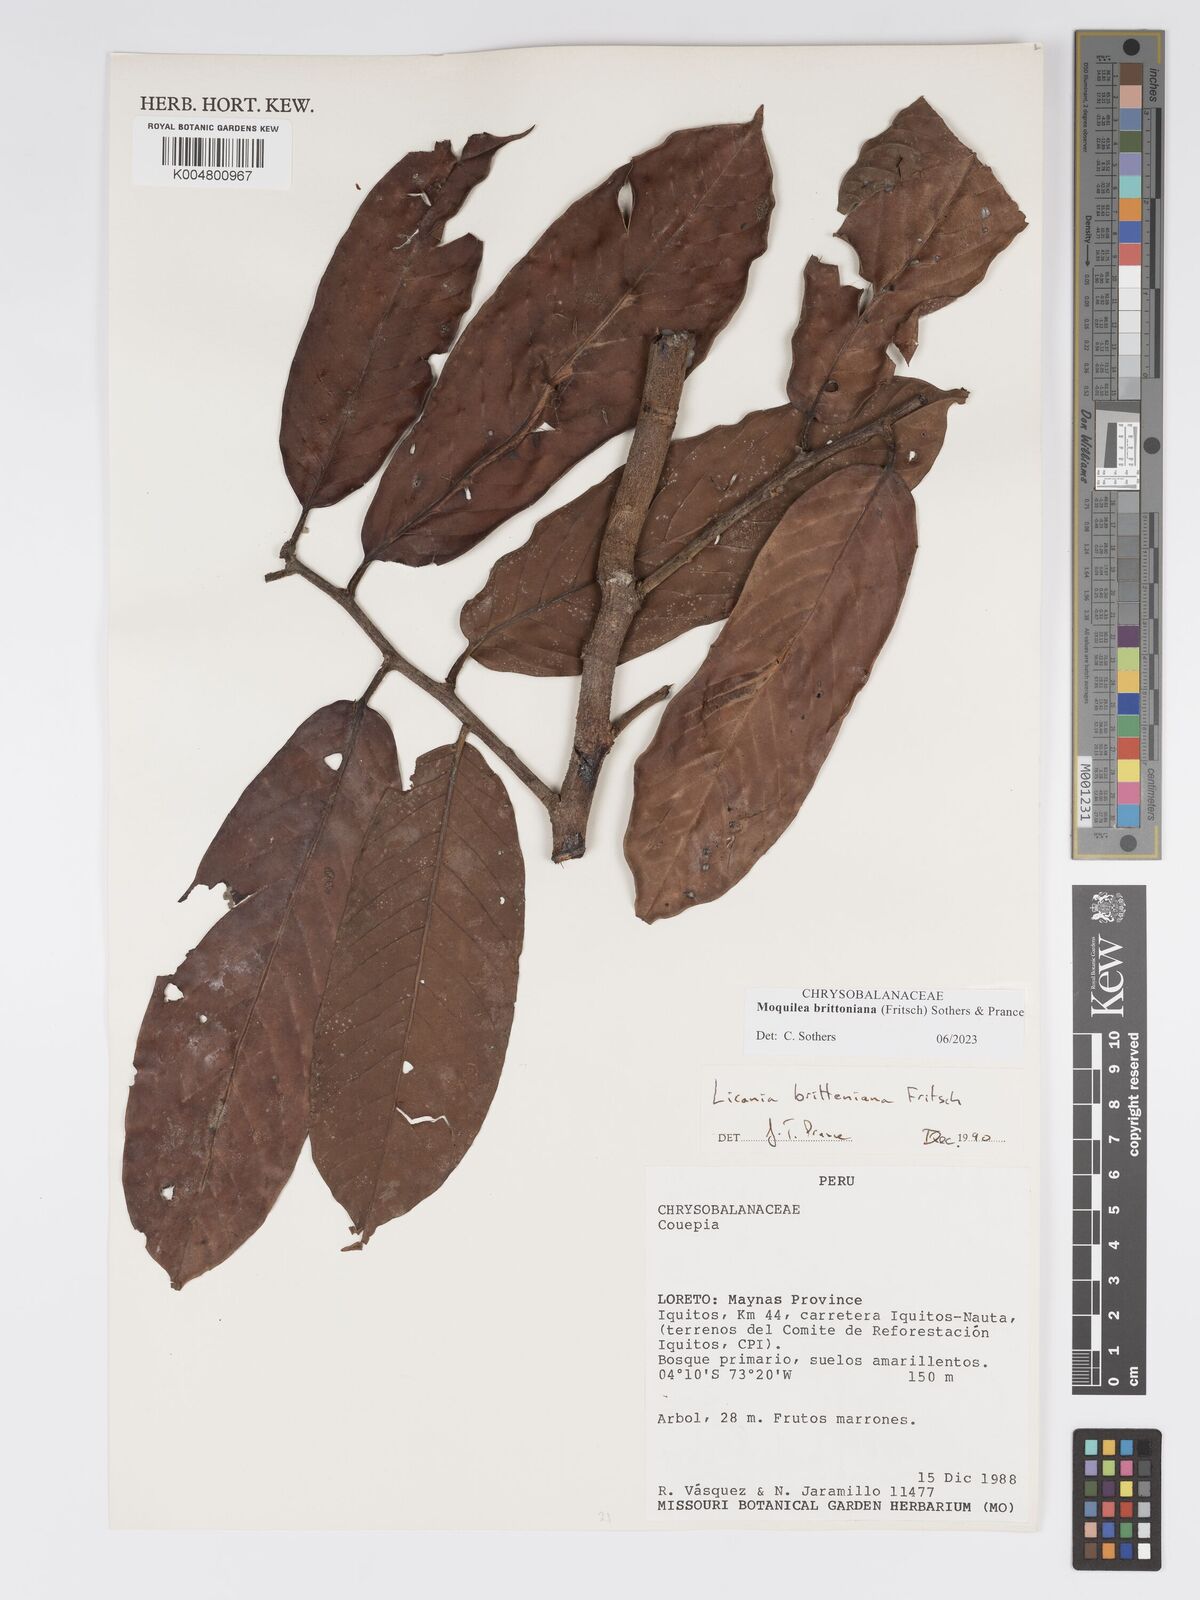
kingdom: Plantae
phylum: Tracheophyta
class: Magnoliopsida
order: Malpighiales
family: Chrysobalanaceae
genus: Moquilea
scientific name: Moquilea brittoniana
